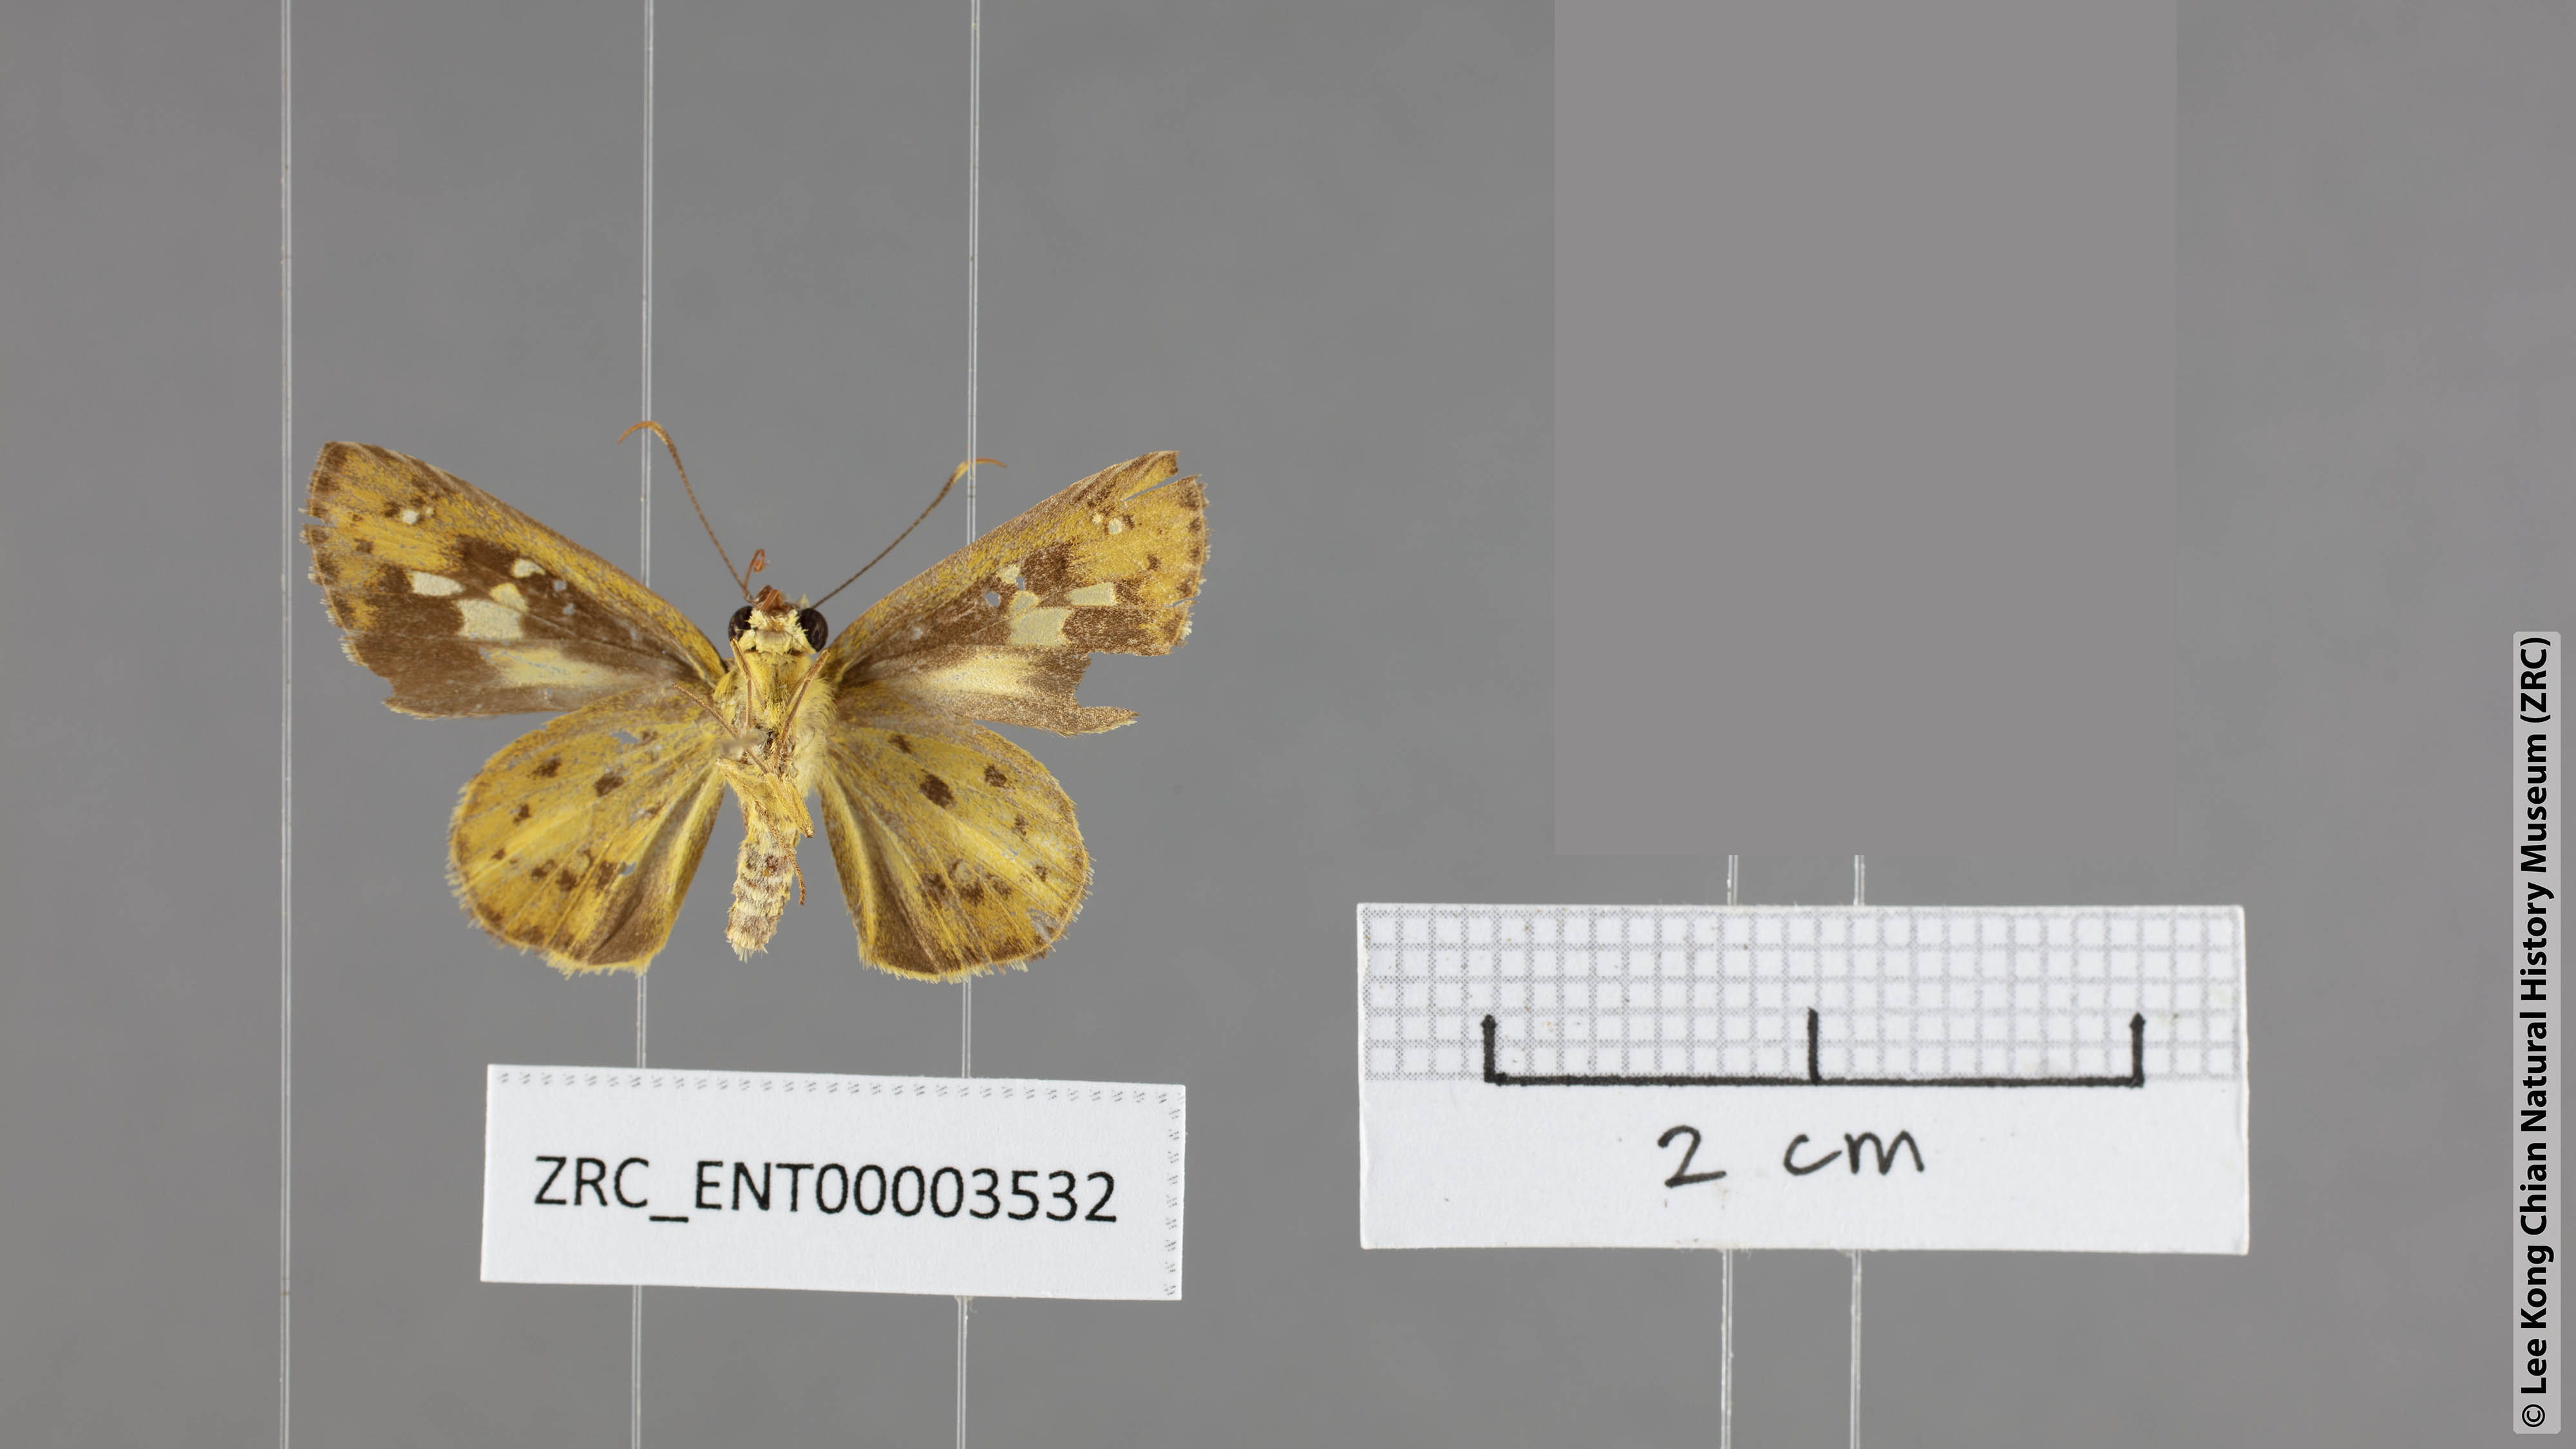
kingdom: Animalia
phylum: Arthropoda
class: Insecta
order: Lepidoptera
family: Hesperiidae
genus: Salanoemia
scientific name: Salanoemia similis
